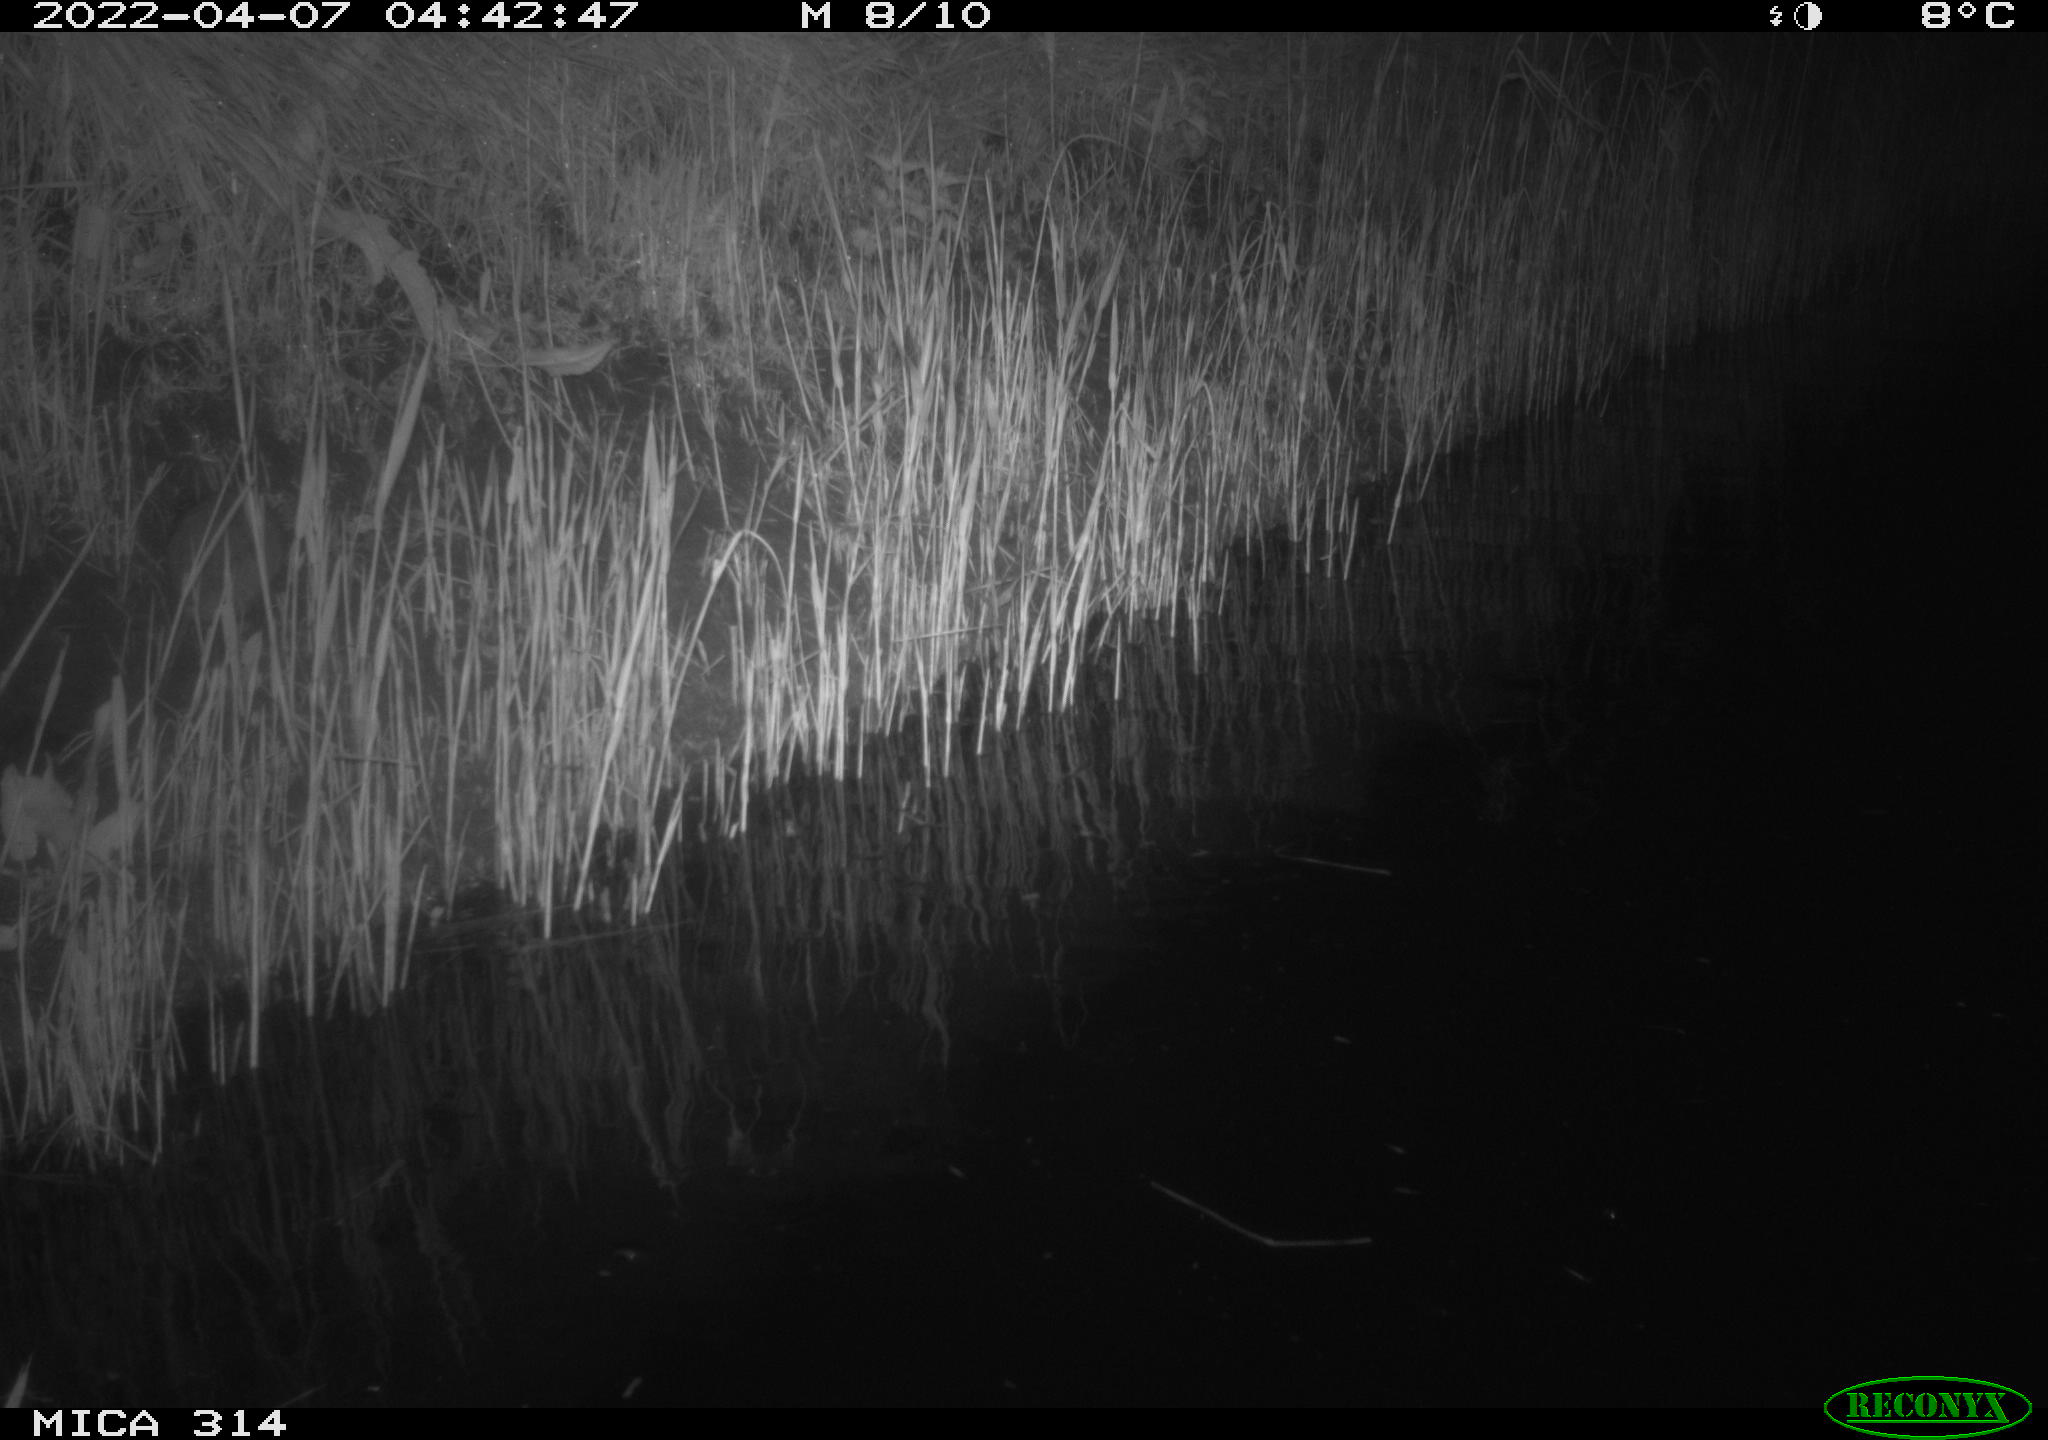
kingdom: Animalia
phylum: Chordata
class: Mammalia
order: Rodentia
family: Cricetidae
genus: Ondatra
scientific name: Ondatra zibethicus
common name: Muskrat
